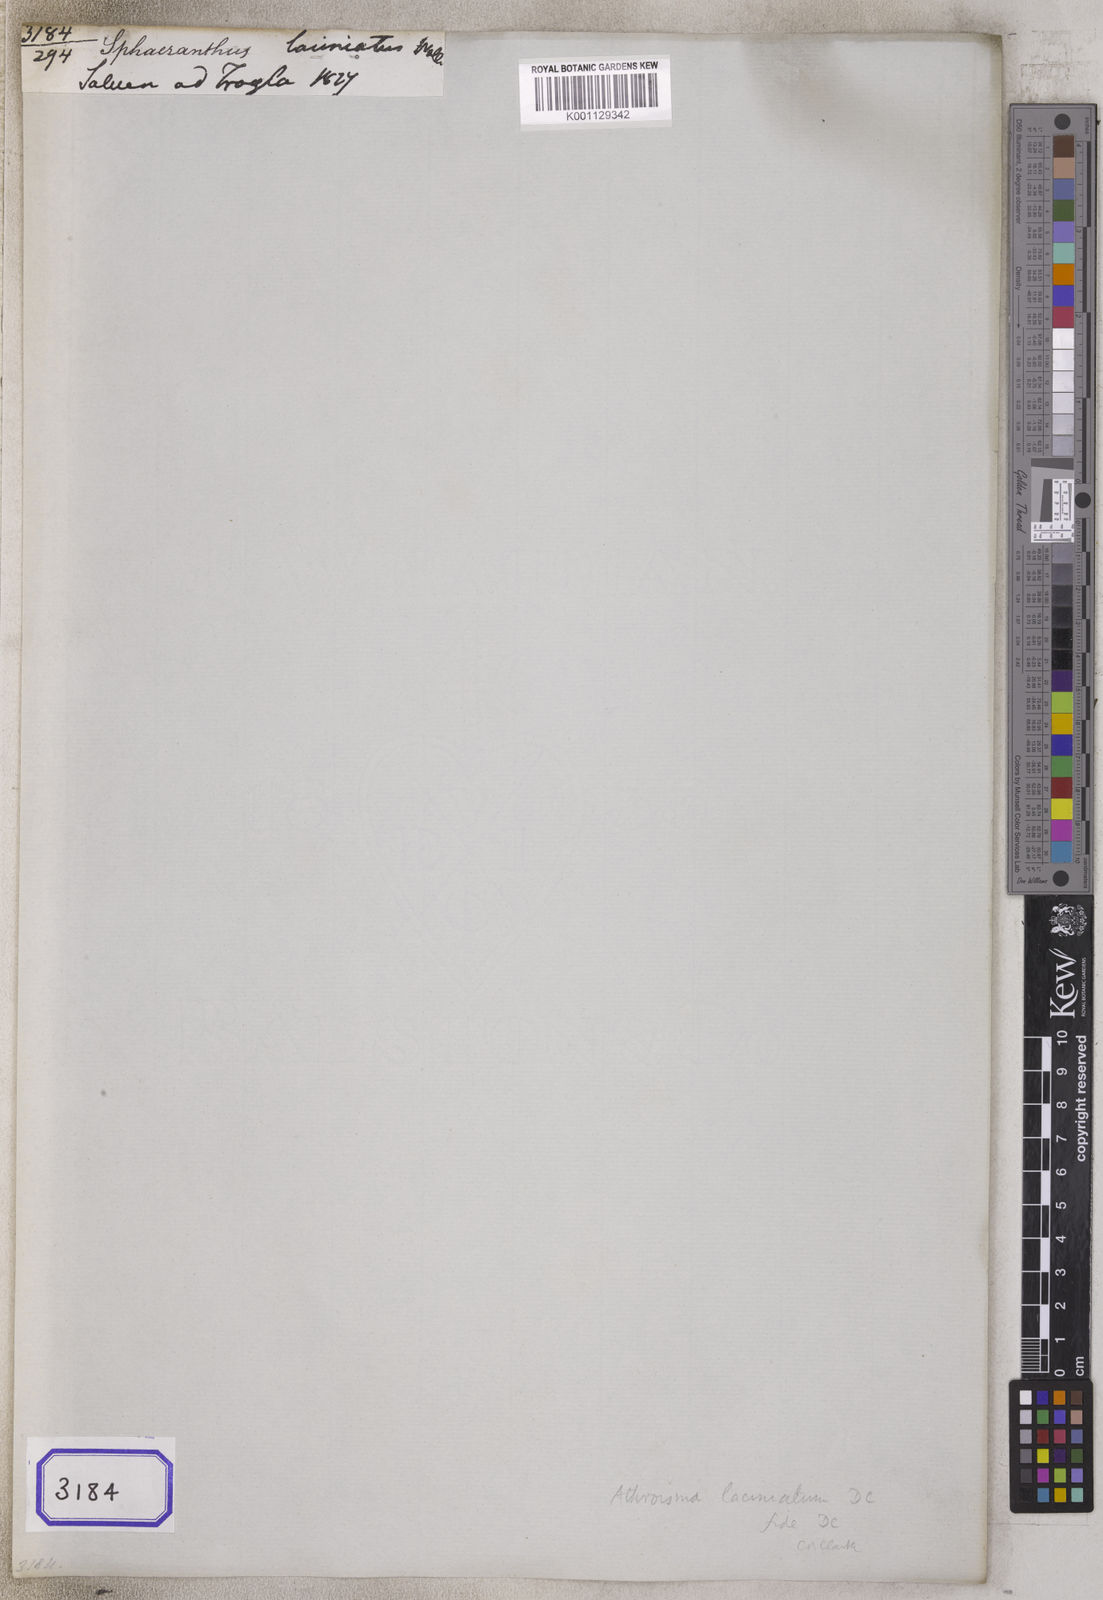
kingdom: Plantae
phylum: Tracheophyta
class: Magnoliopsida
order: Asterales
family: Asteraceae
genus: Athroisma
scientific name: Athroisma laciniatum
